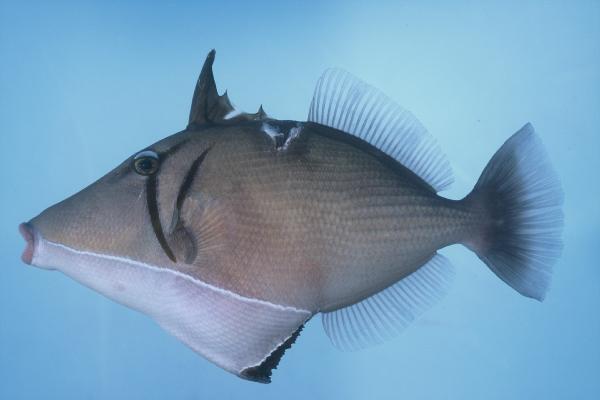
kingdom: Animalia
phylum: Chordata
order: Tetraodontiformes
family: Balistidae
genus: Sufflamen
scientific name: Sufflamen bursa
